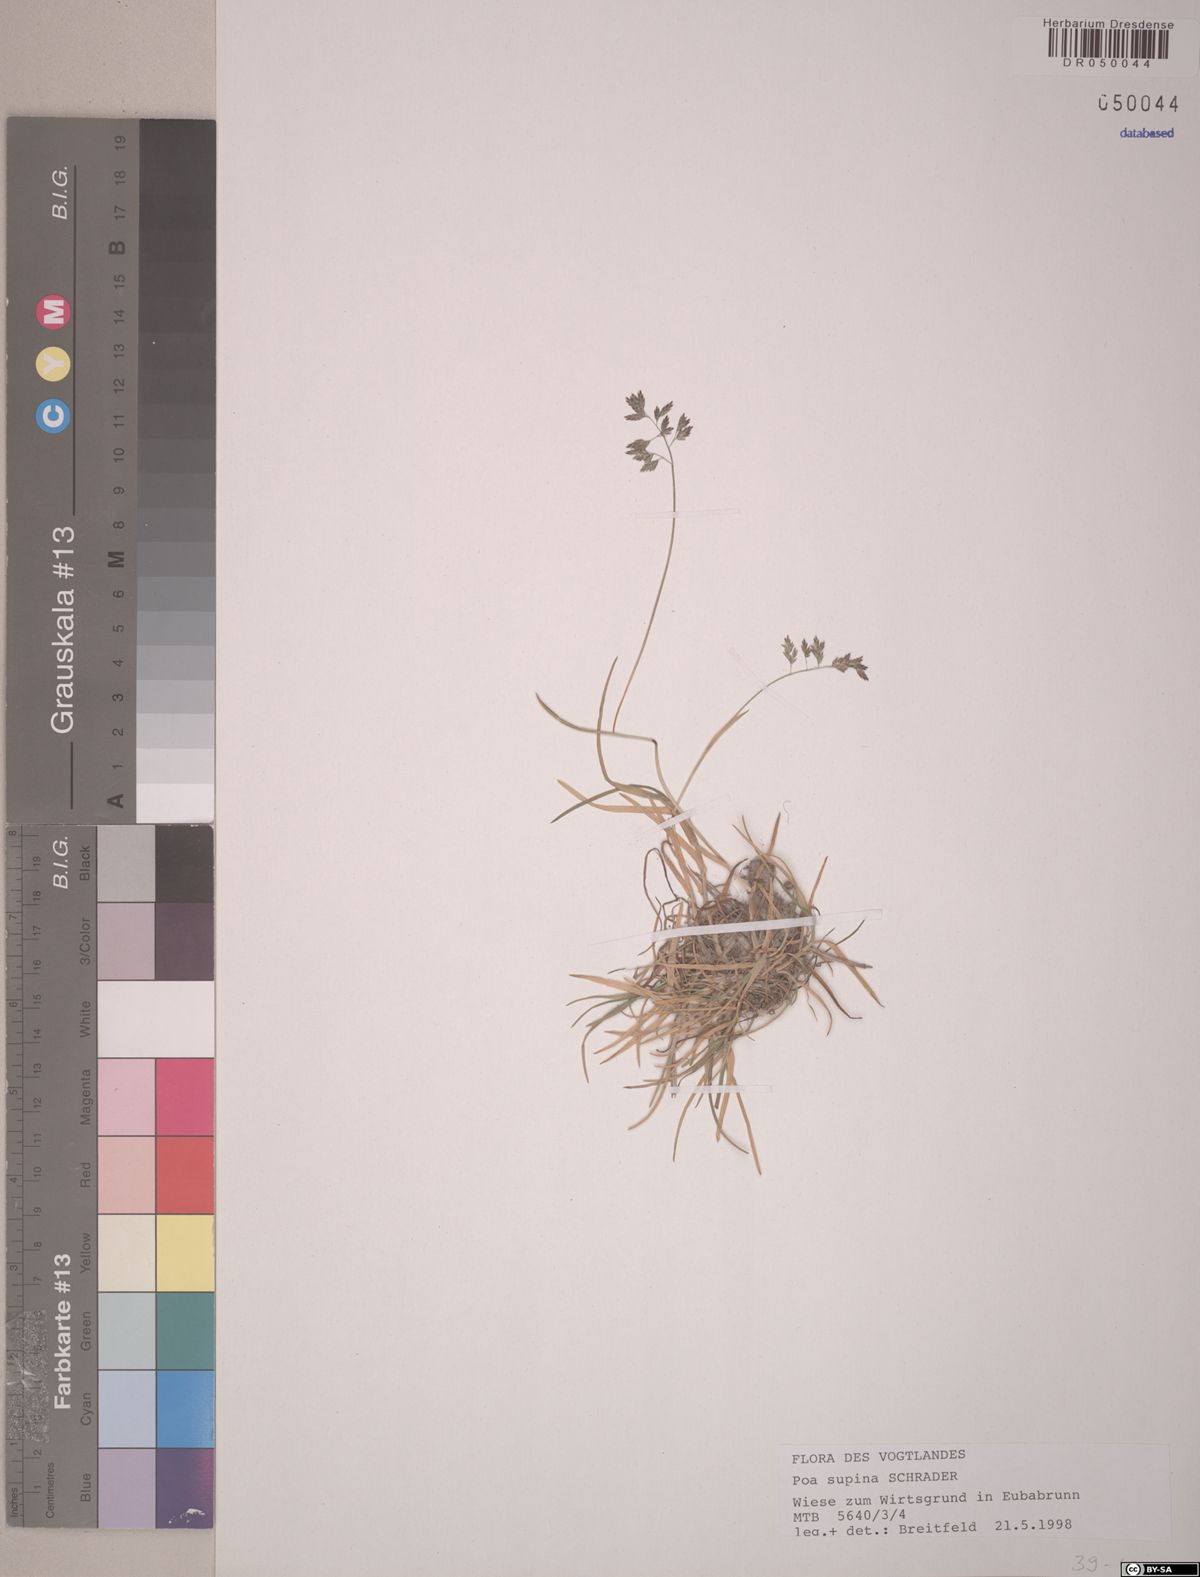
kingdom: Plantae
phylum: Tracheophyta
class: Liliopsida
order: Poales
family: Poaceae
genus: Poa
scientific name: Poa supina
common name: Supina bluegrass
